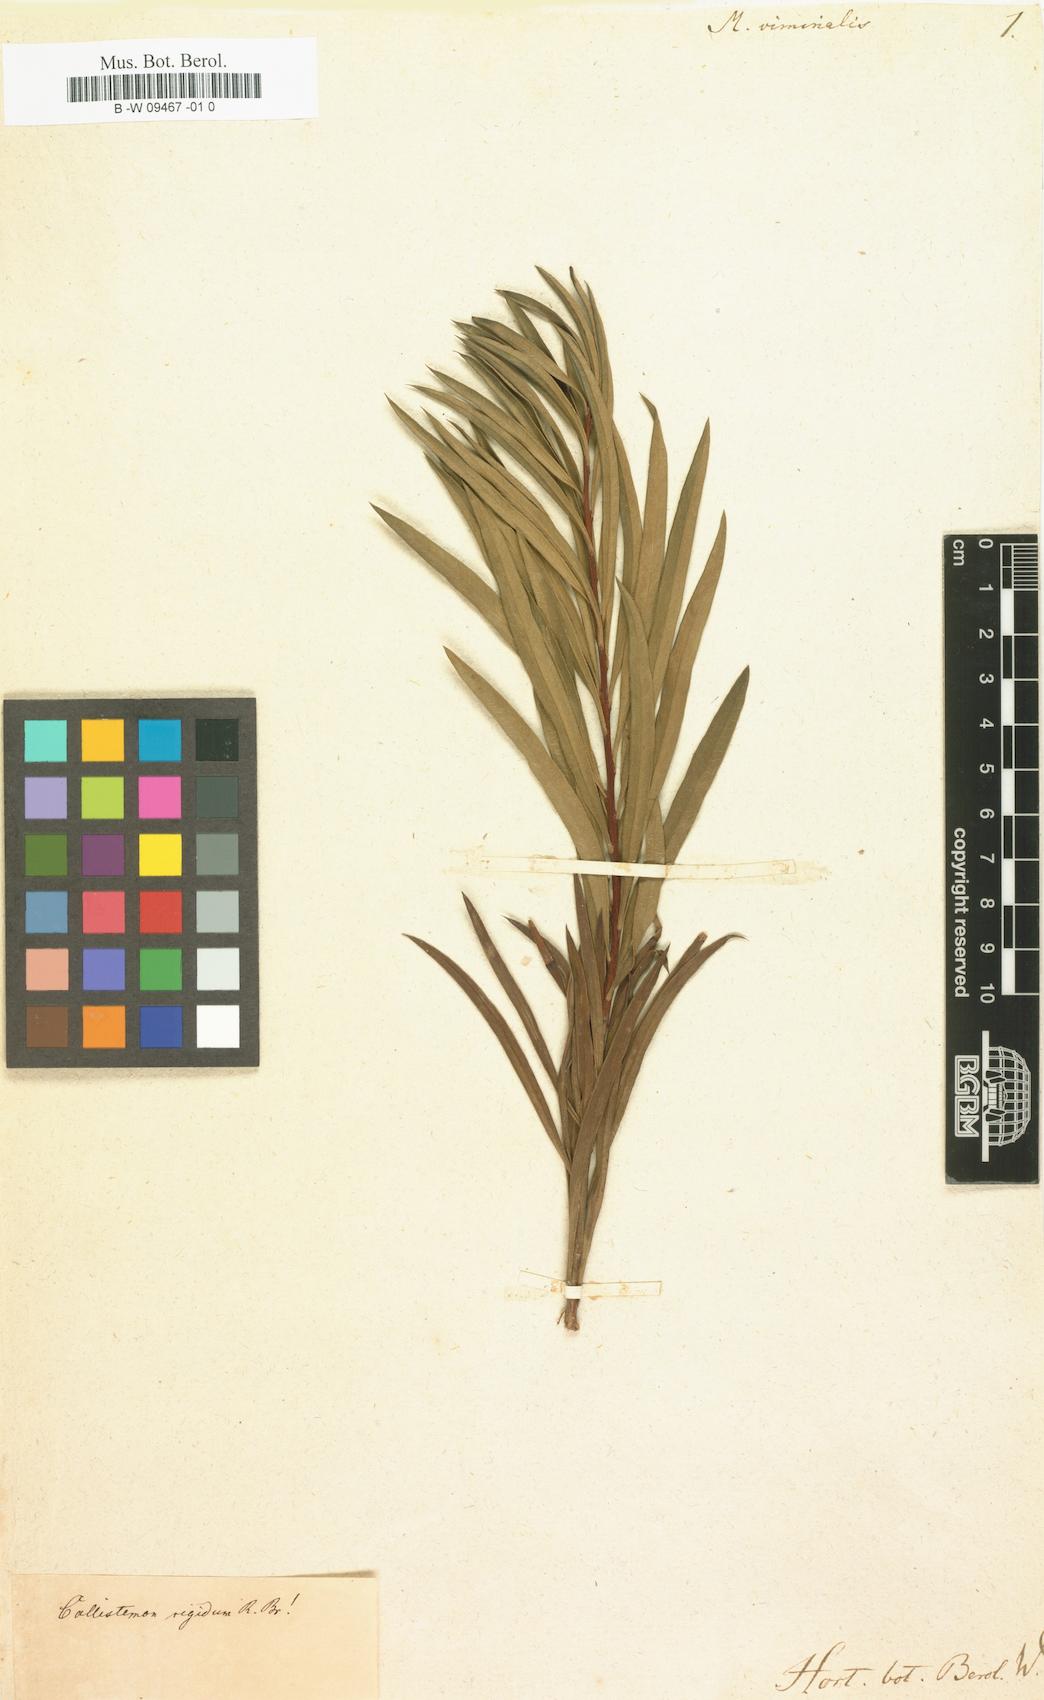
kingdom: Plantae
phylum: Tracheophyta
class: Magnoliopsida
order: Myrtales
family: Myrtaceae
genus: Callistemon
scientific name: Callistemon viminalis
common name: Drooping bottlebrush
